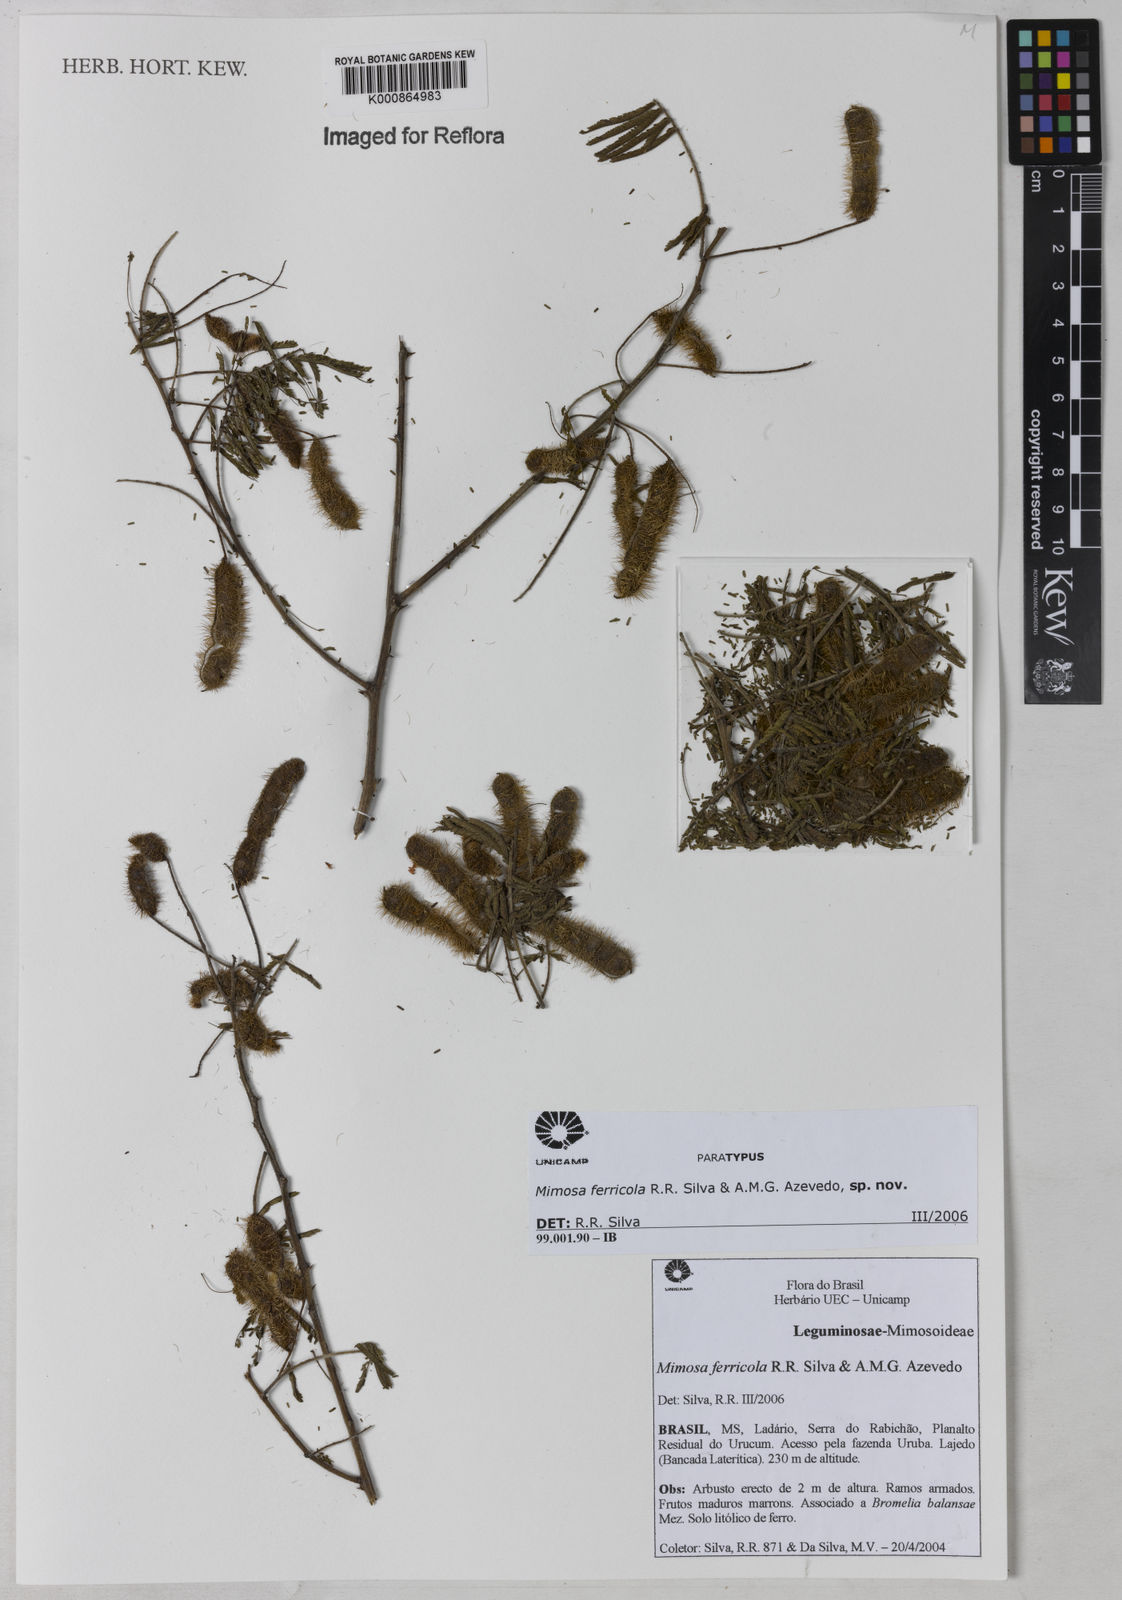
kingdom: Plantae
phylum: Tracheophyta
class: Magnoliopsida
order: Fabales
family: Fabaceae
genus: Mimosa
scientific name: Mimosa craspedisetosa
